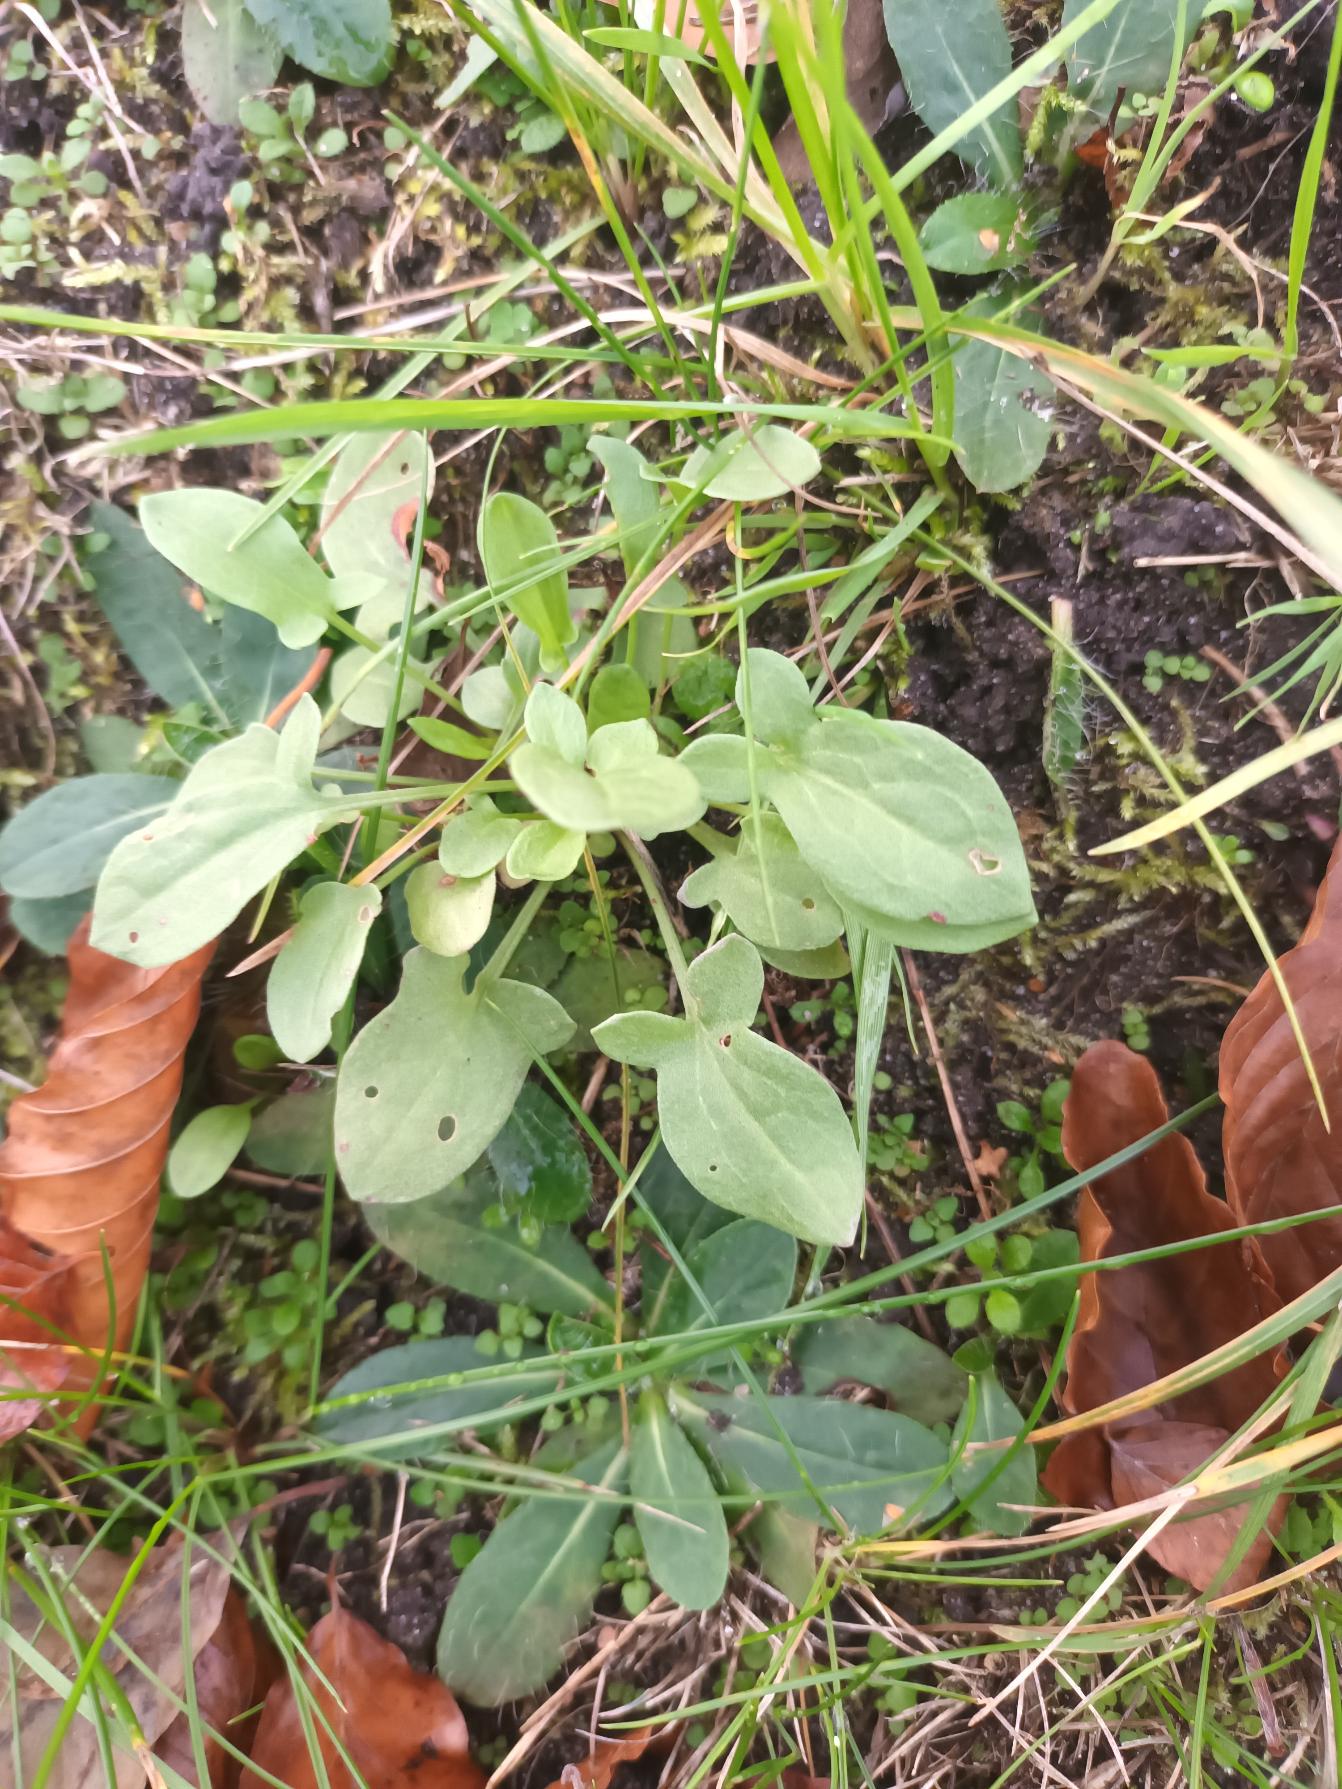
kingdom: Plantae
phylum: Tracheophyta
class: Magnoliopsida
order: Caryophyllales
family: Polygonaceae
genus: Rumex
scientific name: Rumex acetosella
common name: Rødknæ
